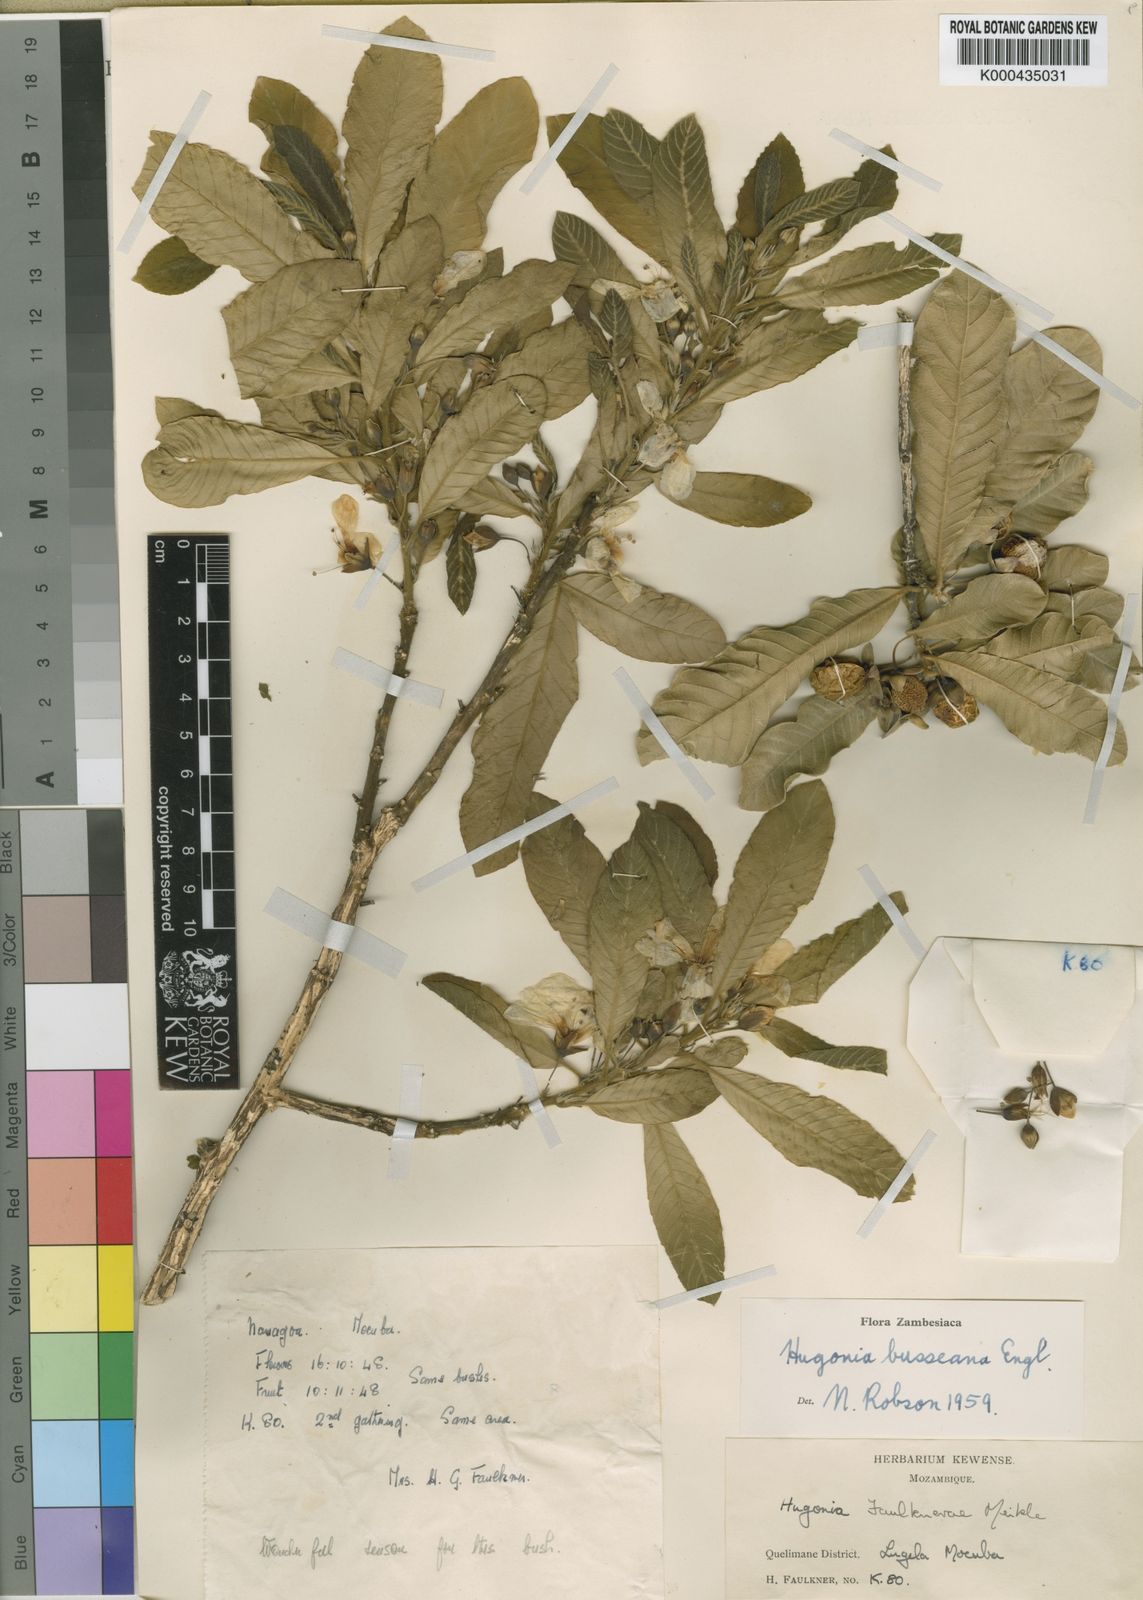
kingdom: Plantae
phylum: Tracheophyta
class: Magnoliopsida
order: Malpighiales
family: Linaceae
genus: Hugonia
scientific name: Hugonia busseana
